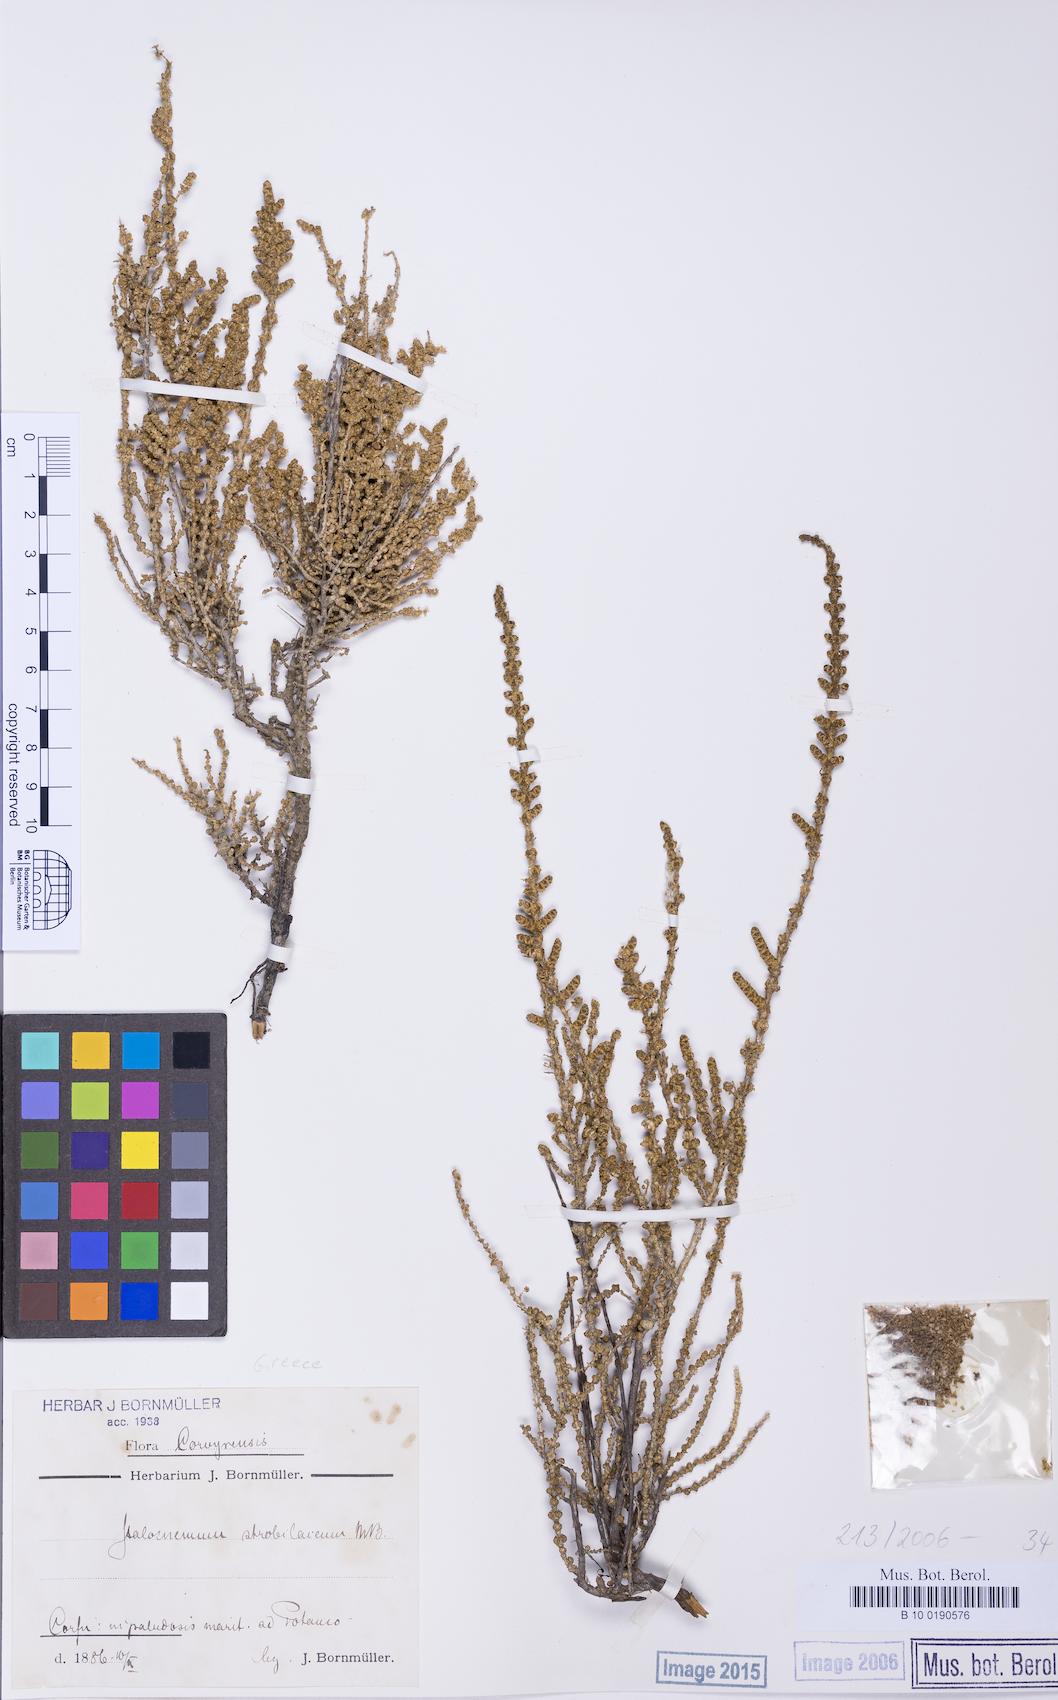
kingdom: Plantae
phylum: Tracheophyta
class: Magnoliopsida
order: Caryophyllales
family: Amaranthaceae
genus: Halocnemum
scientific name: Halocnemum strobilaceum
